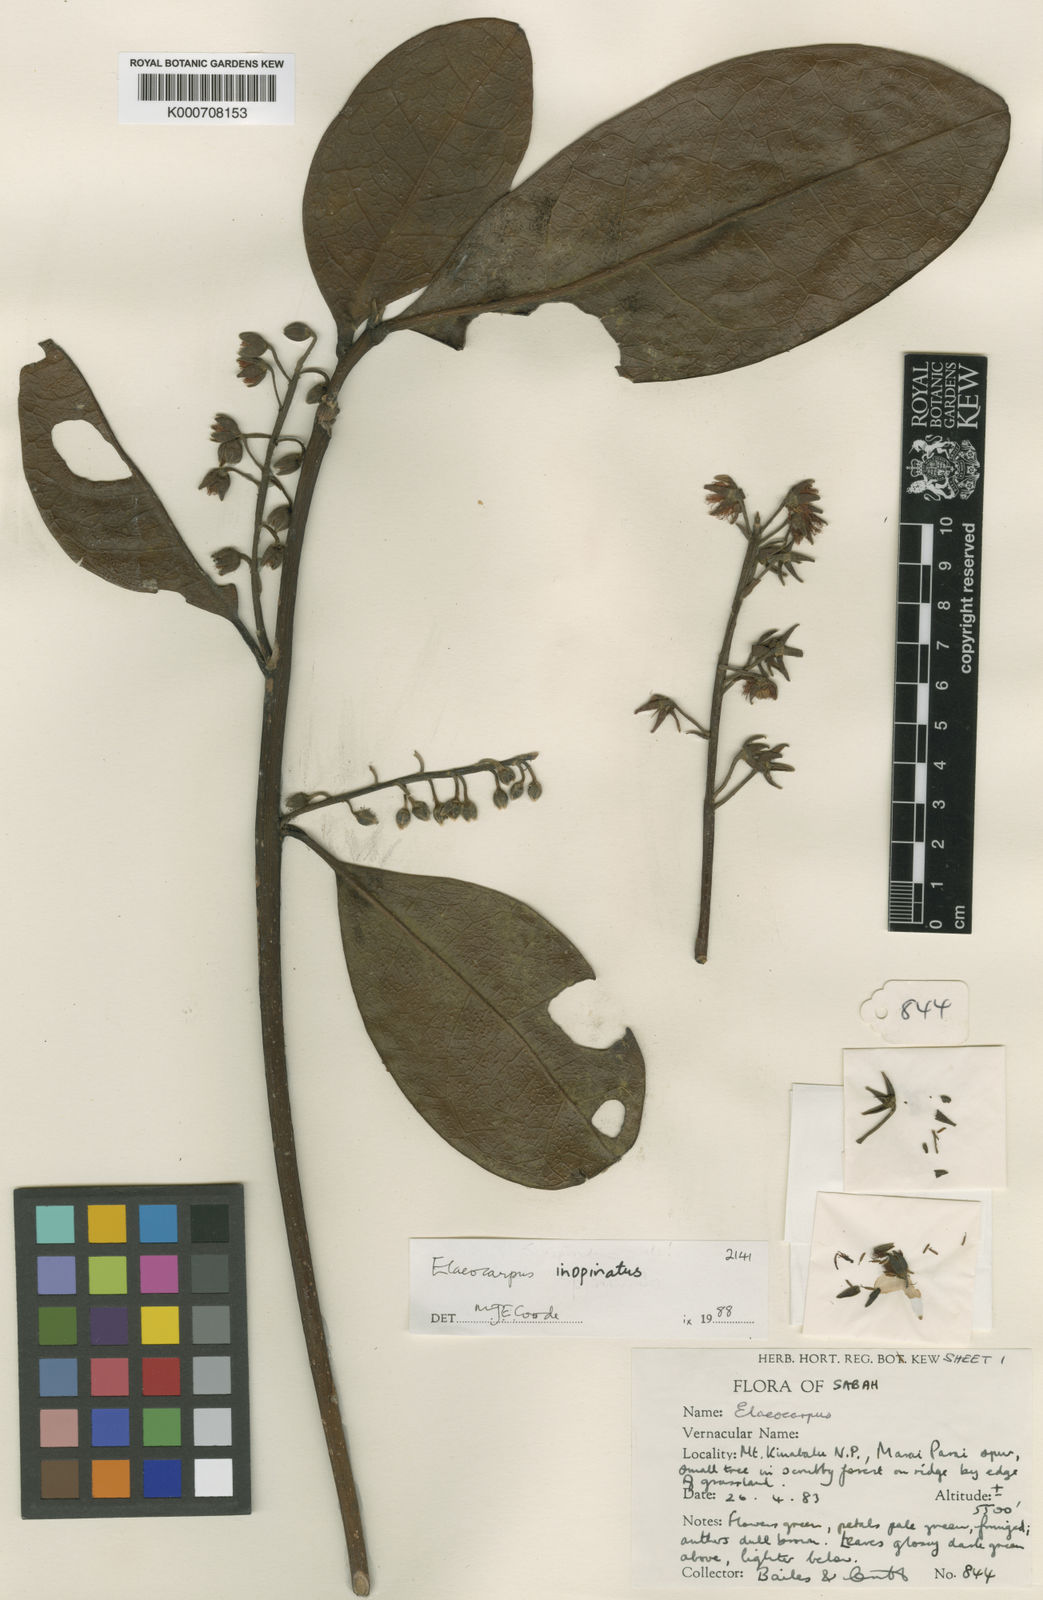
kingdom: Plantae
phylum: Tracheophyta
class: Magnoliopsida
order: Oxalidales
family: Elaeocarpaceae
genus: Elaeocarpus
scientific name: Elaeocarpus inopinatus
